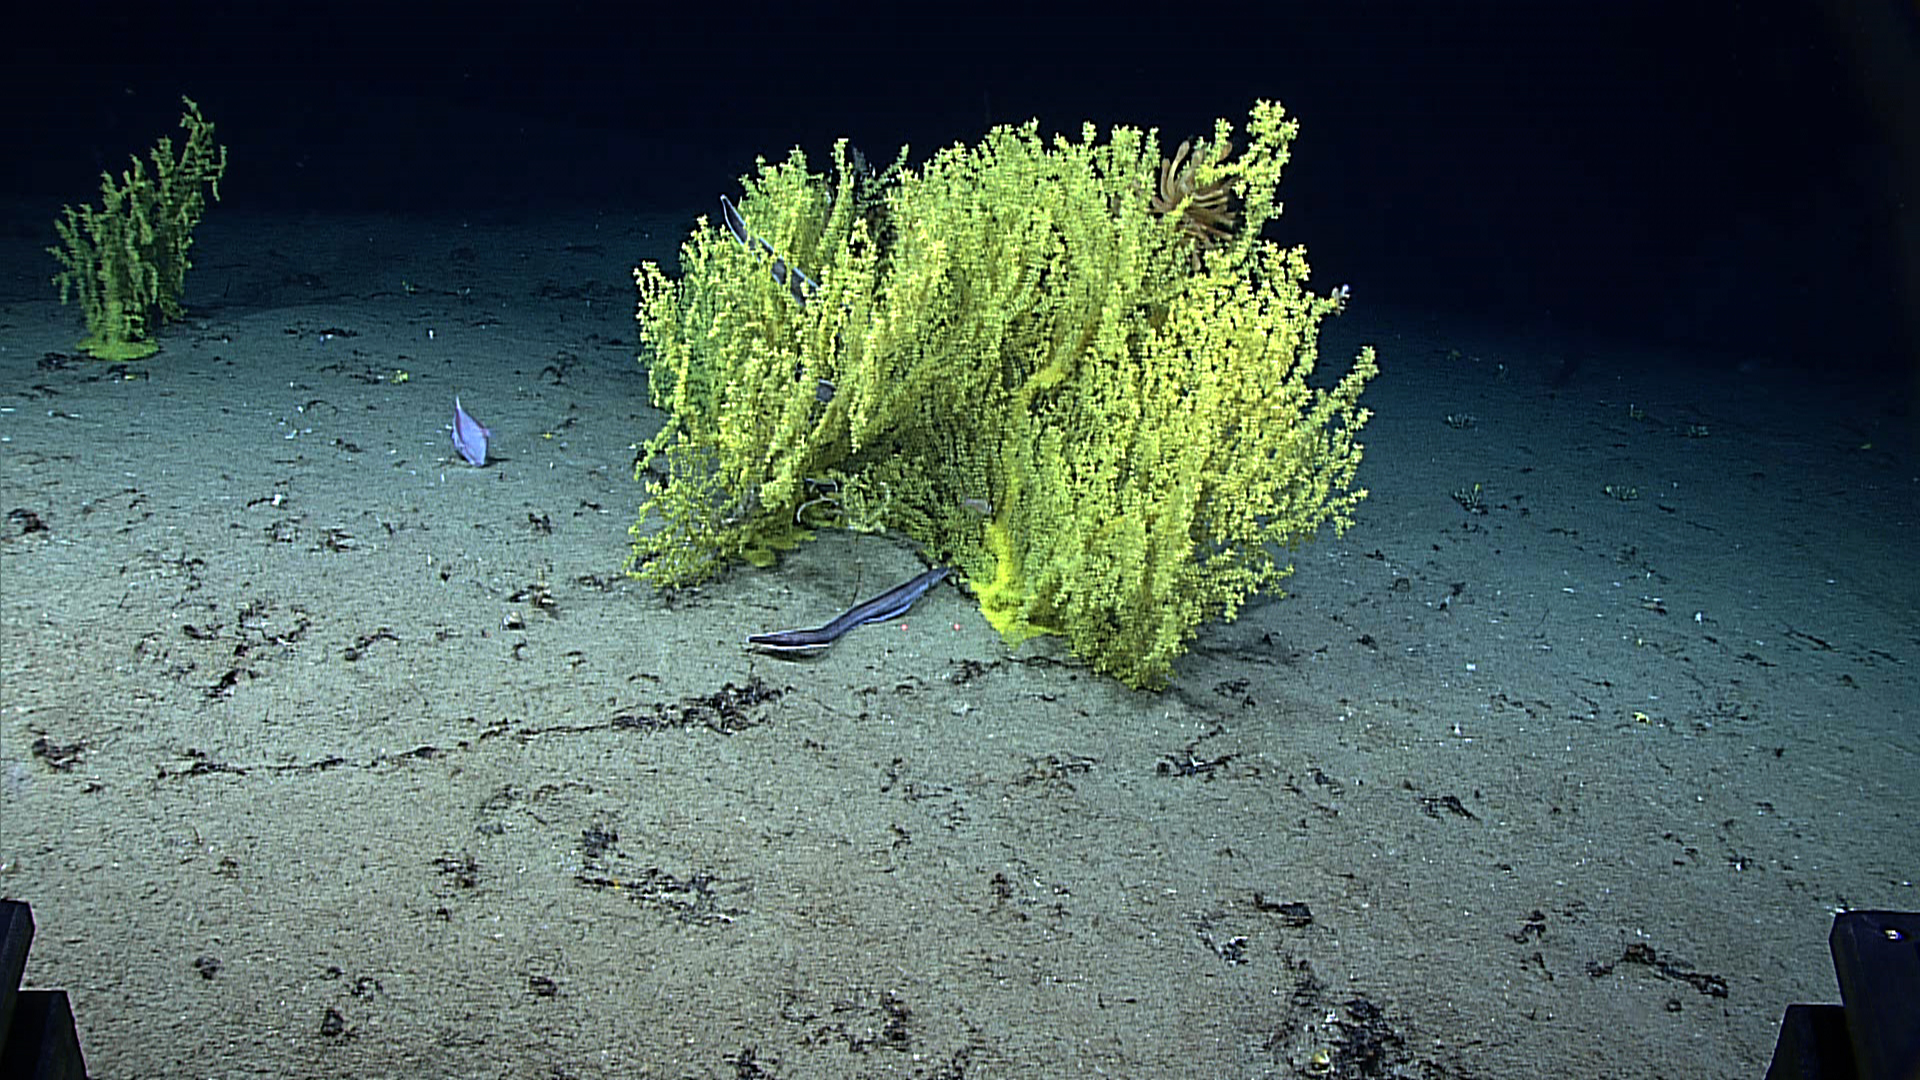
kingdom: Animalia
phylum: Cnidaria
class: Anthozoa
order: Zoantharia
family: Parazoanthidae
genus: Kulamanamana
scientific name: Kulamanamana haumeaae
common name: Hawaiian gold coral
